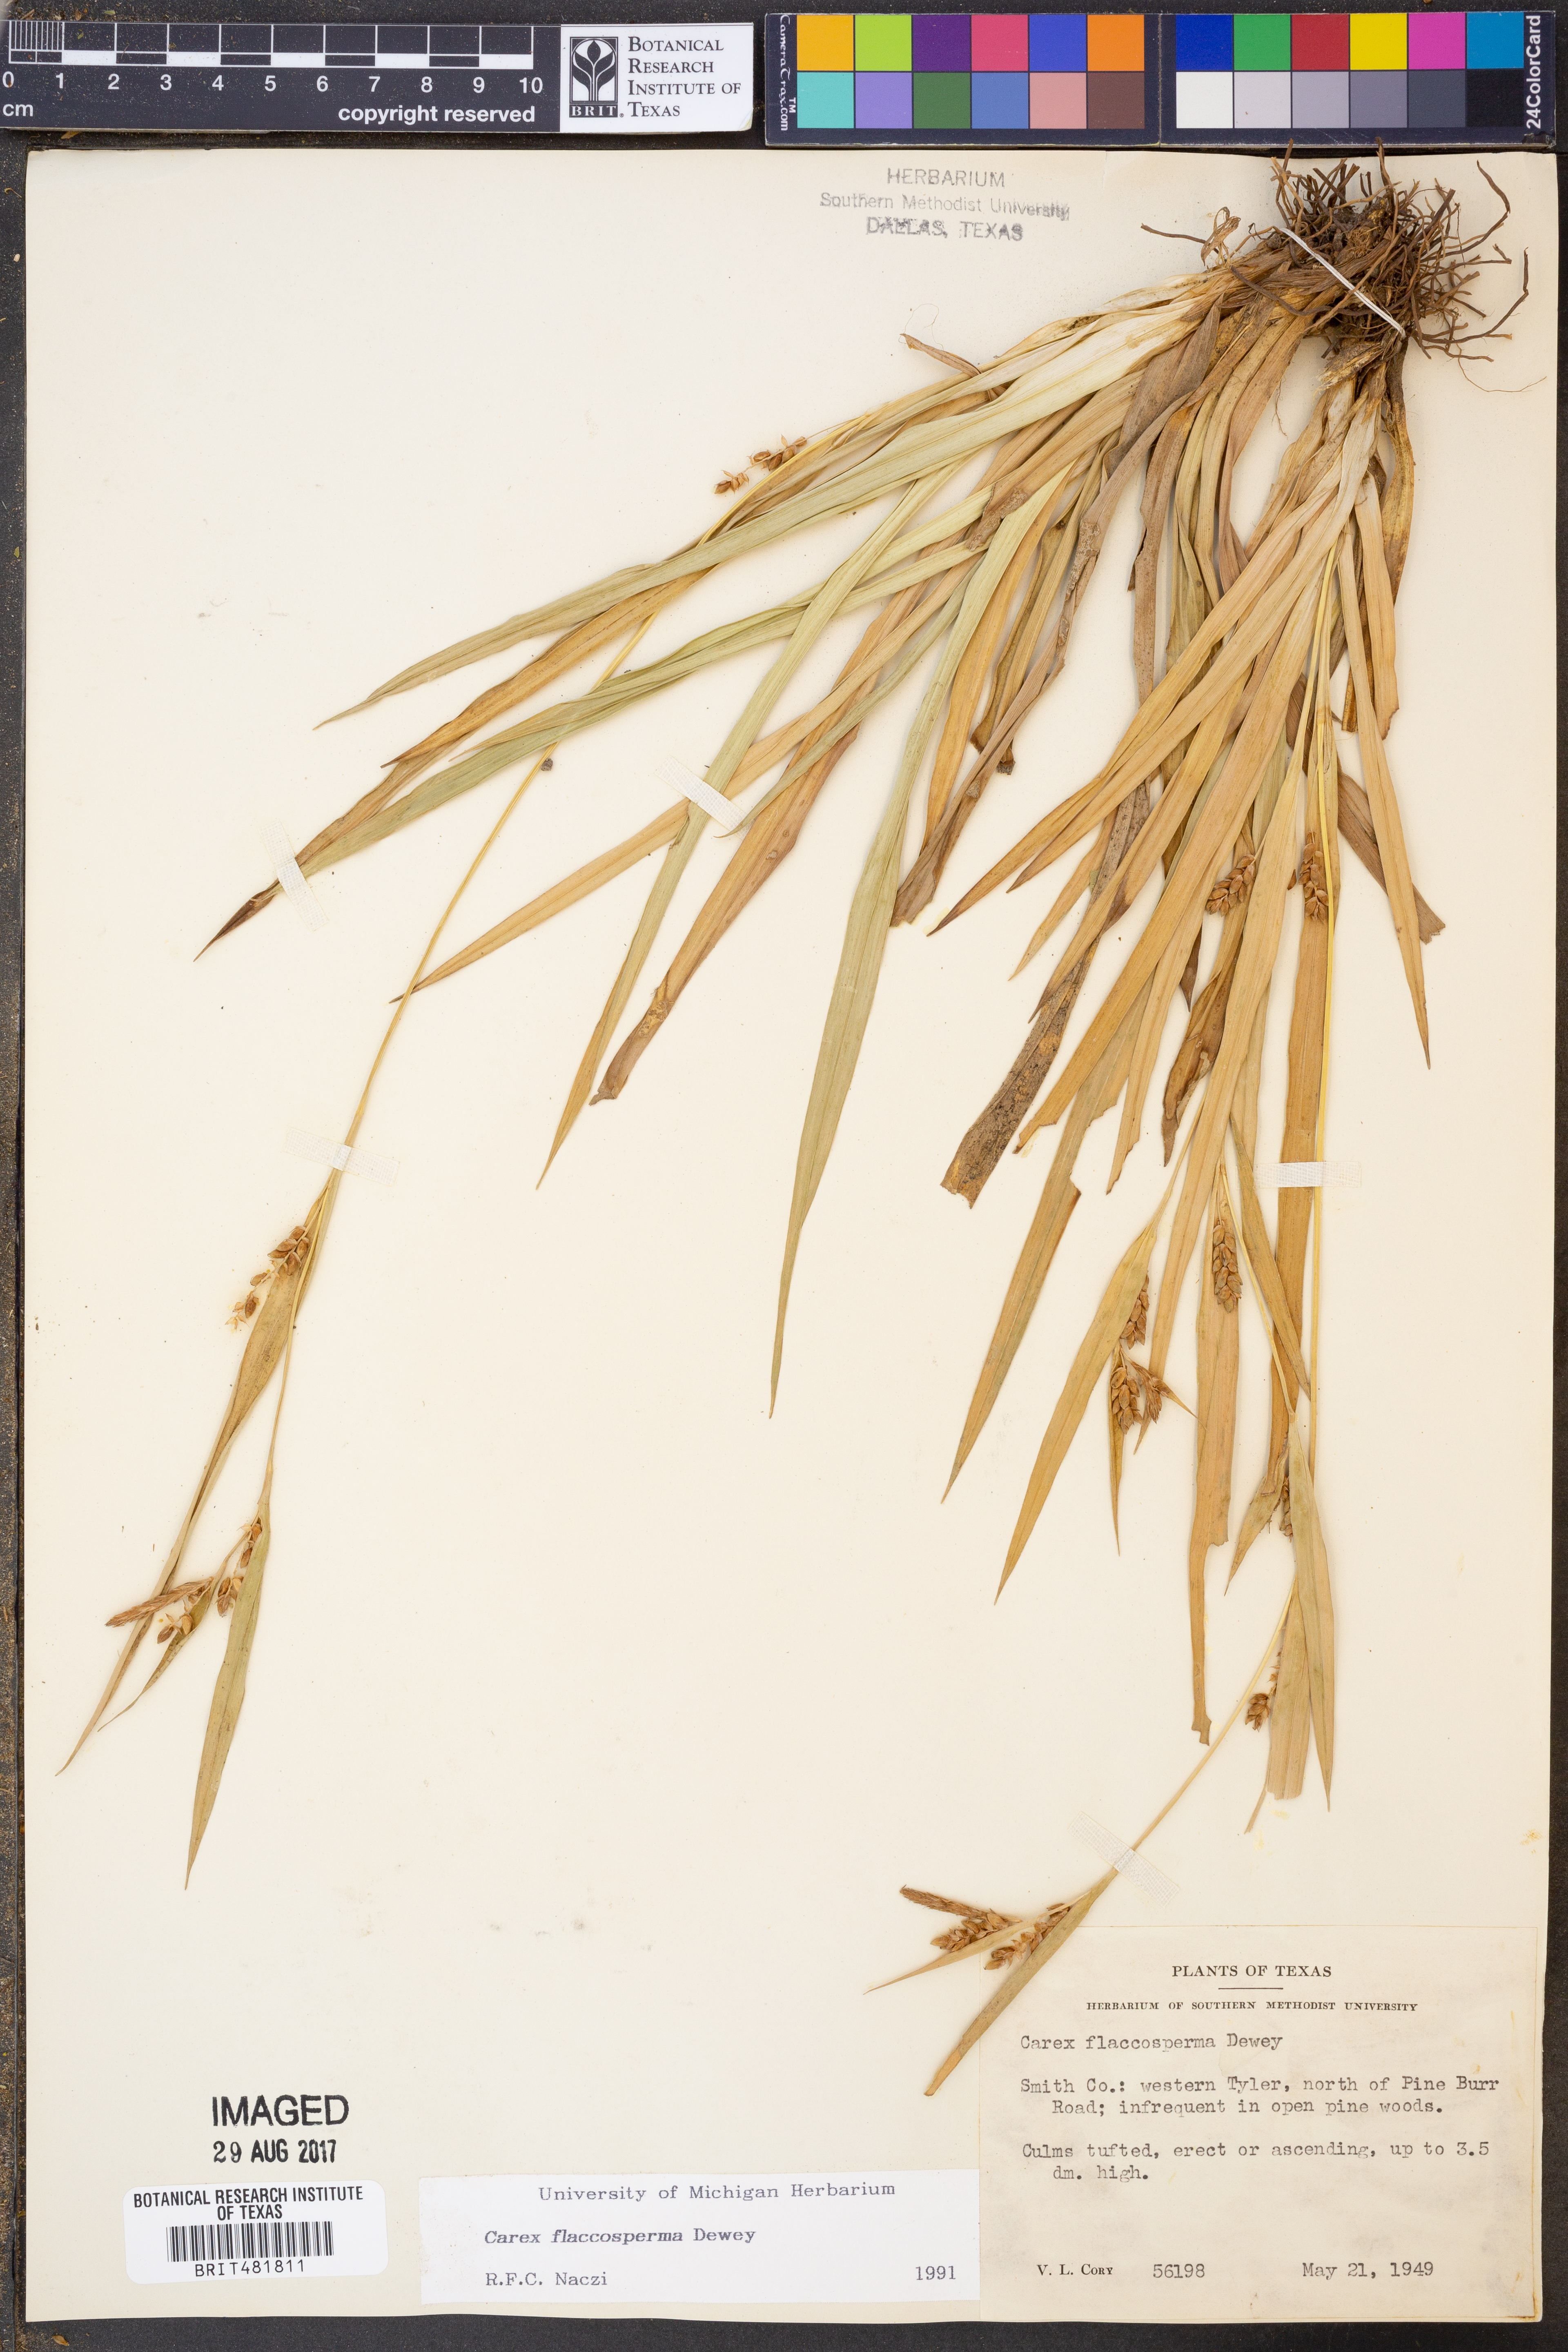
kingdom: Plantae
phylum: Tracheophyta
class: Liliopsida
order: Poales
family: Cyperaceae
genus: Carex
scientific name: Carex flaccosperma
